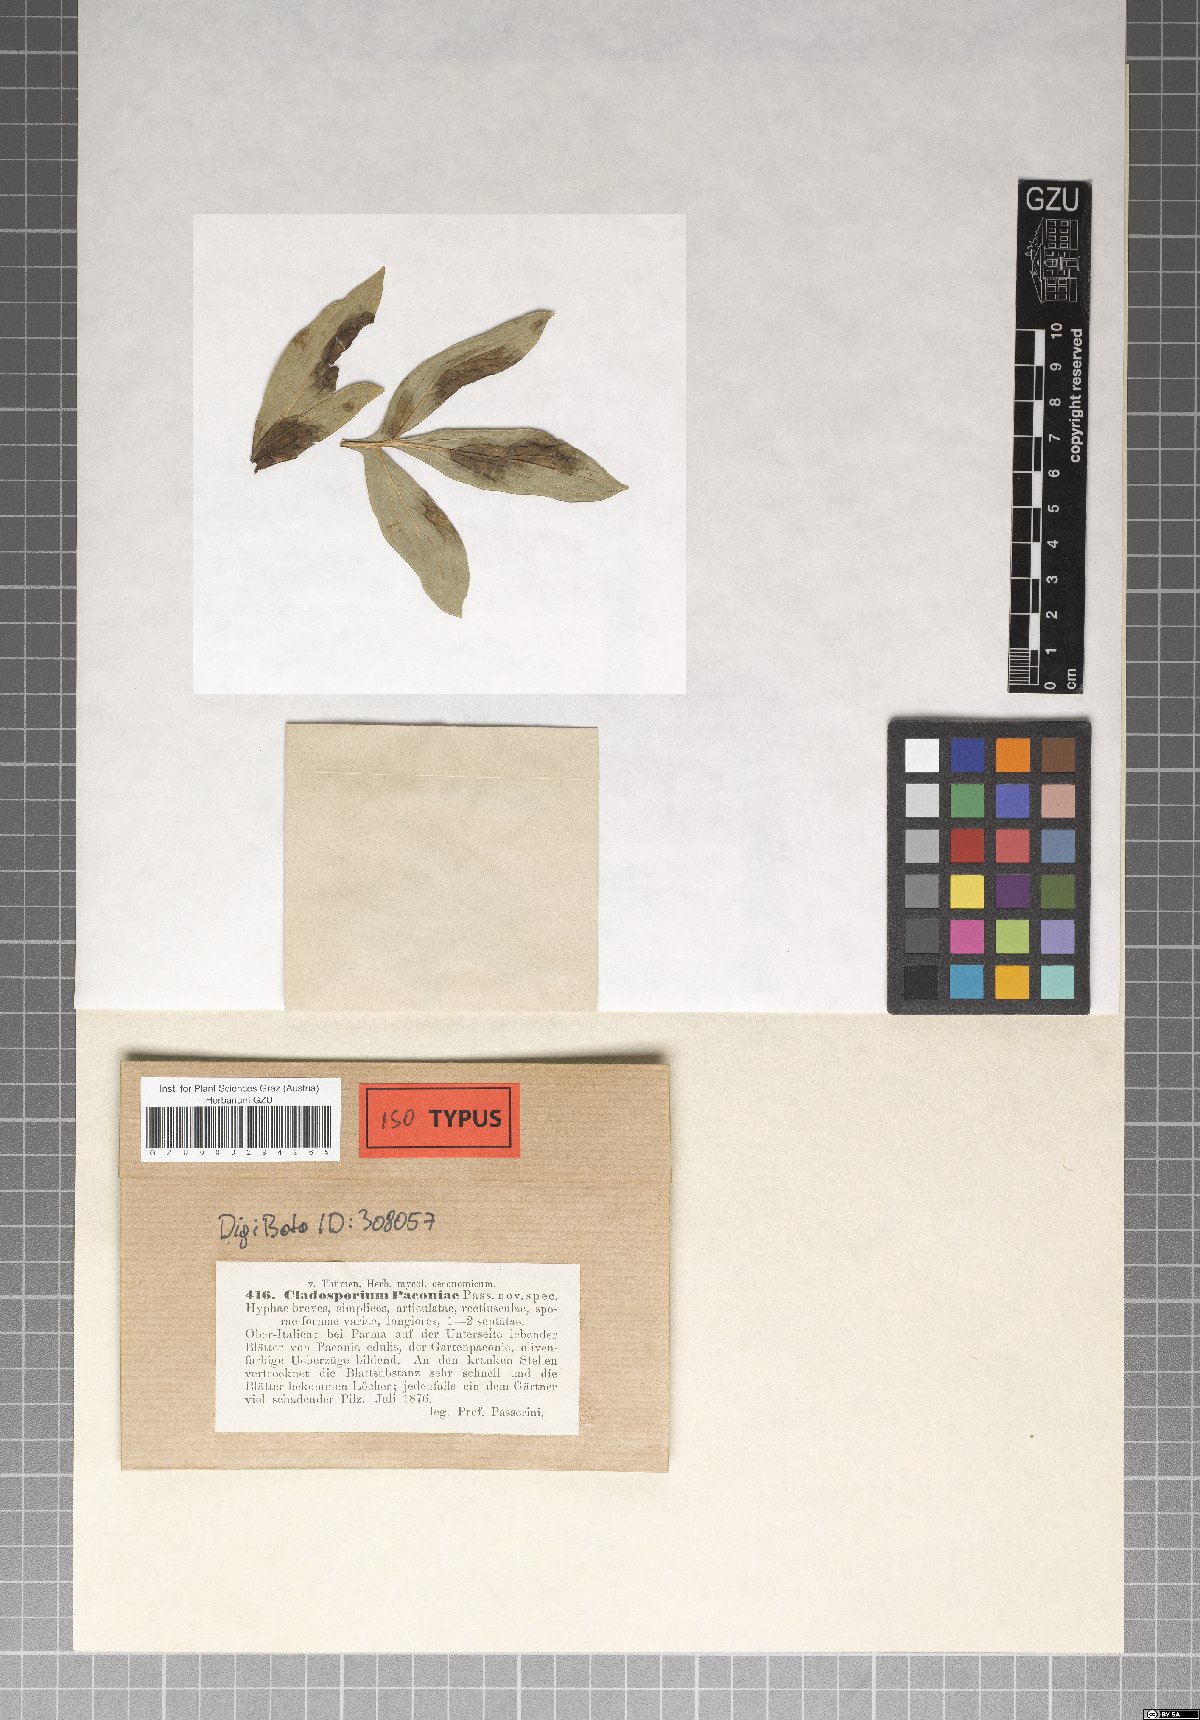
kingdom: Fungi
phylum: Ascomycota
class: Dothideomycetes
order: Capnodiales
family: Davidiellaceae
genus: Dichocladosporium
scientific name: Dichocladosporium chlorocephalum
